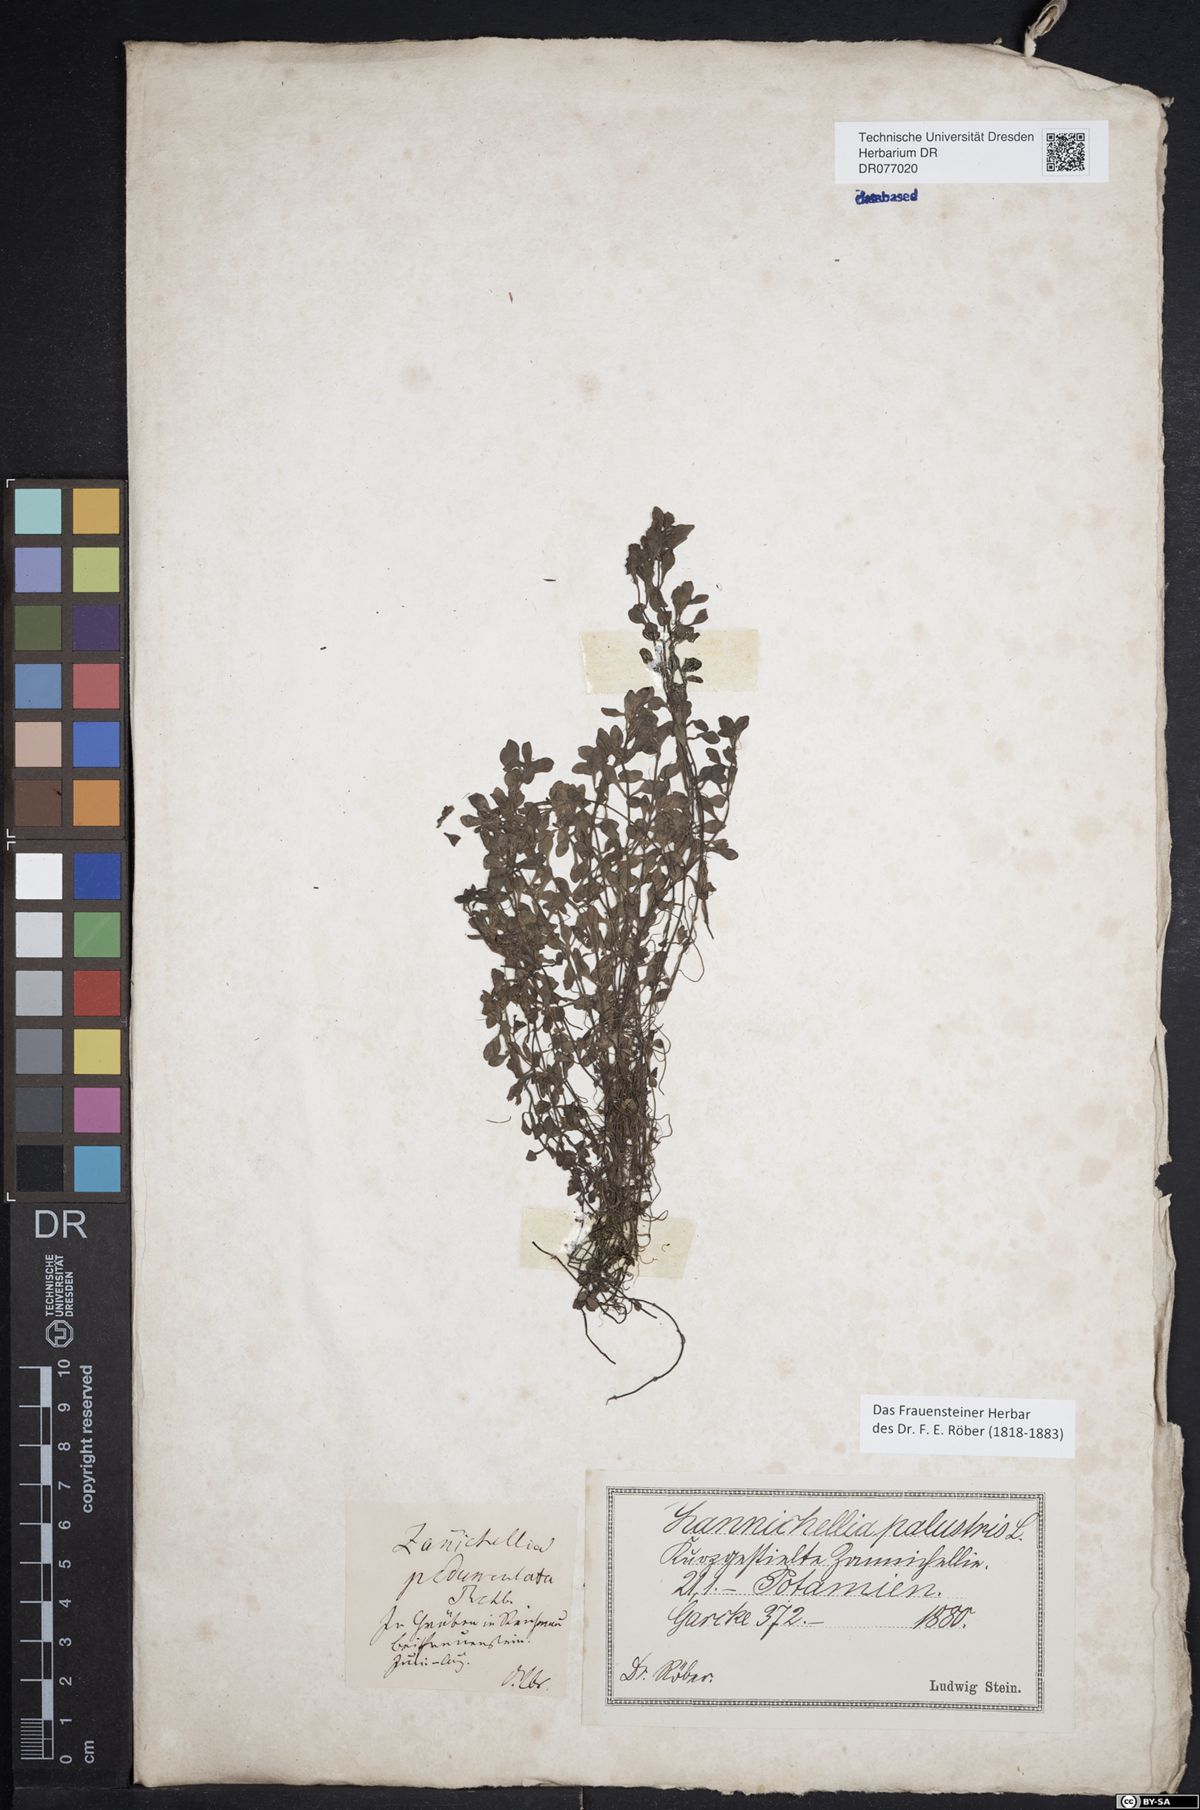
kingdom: Plantae
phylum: Tracheophyta
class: Magnoliopsida
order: Lamiales
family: Plantaginaceae
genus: Callitriche
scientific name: Callitriche palustris
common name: Spring water-starwort
